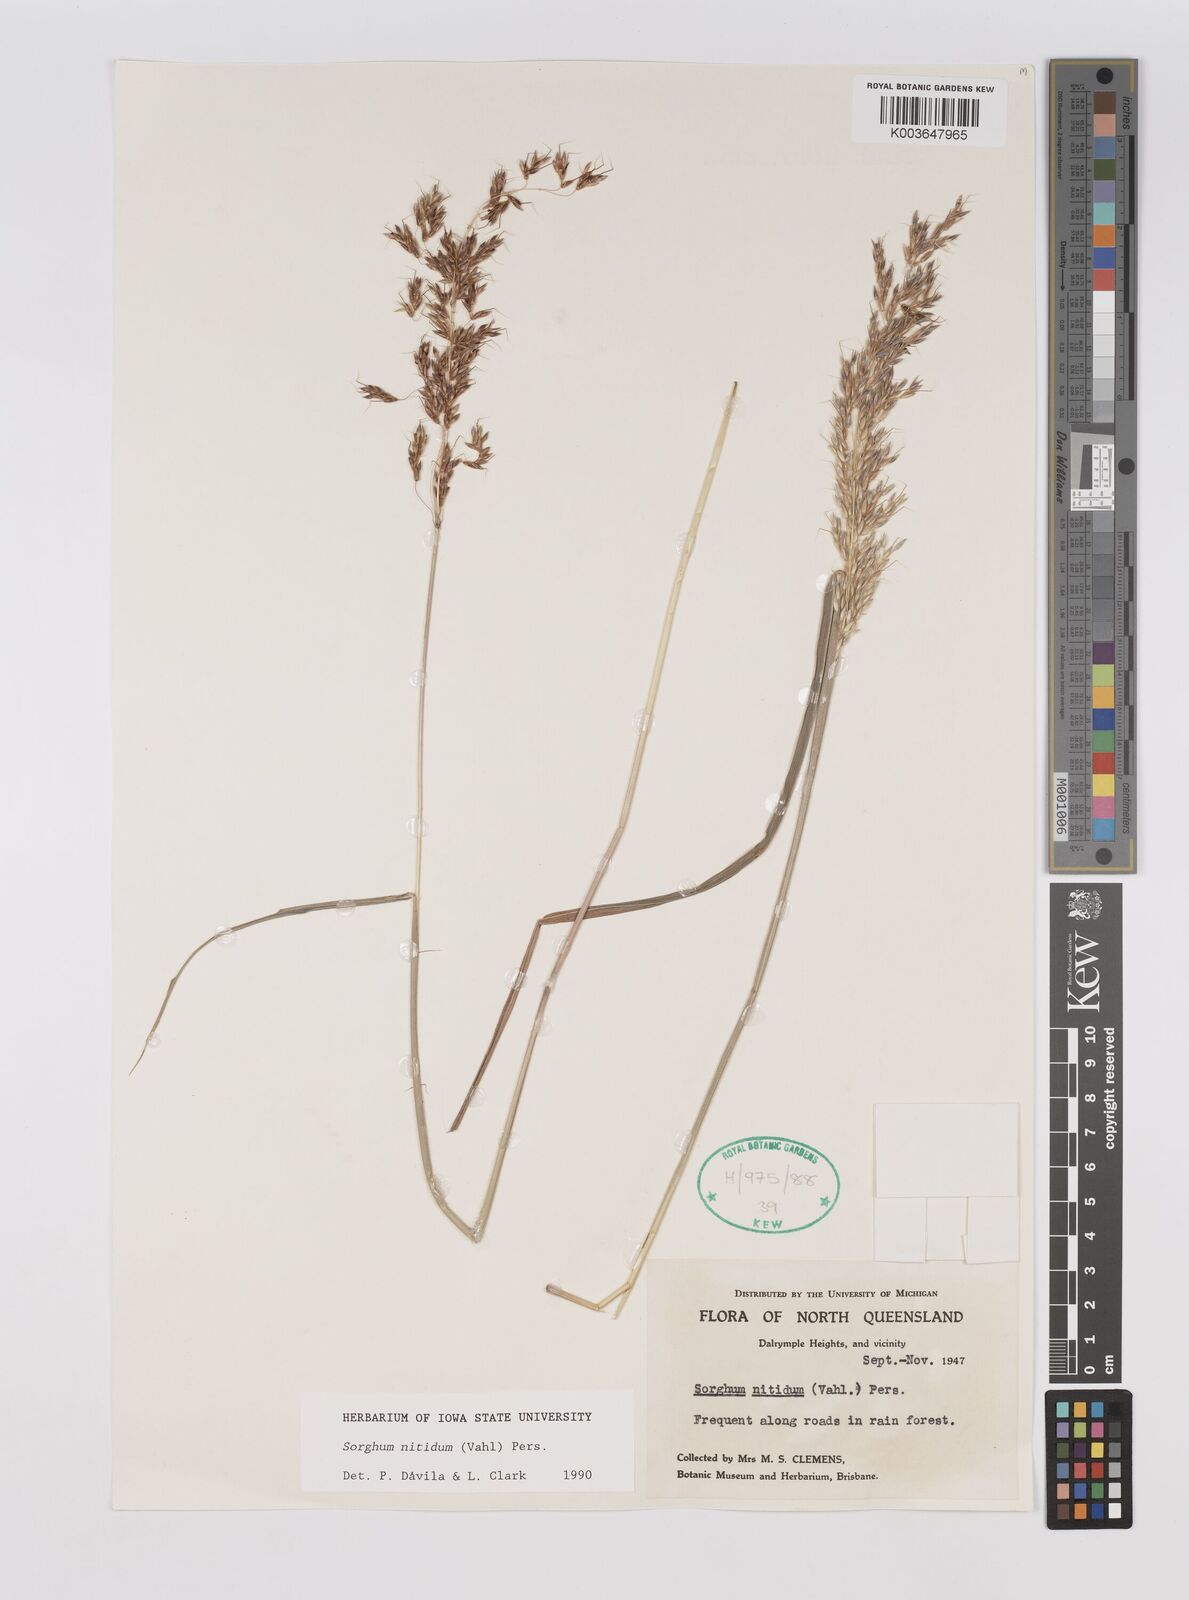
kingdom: Plantae
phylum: Tracheophyta
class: Liliopsida
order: Poales
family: Poaceae
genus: Sorghum
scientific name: Sorghum nitidum
